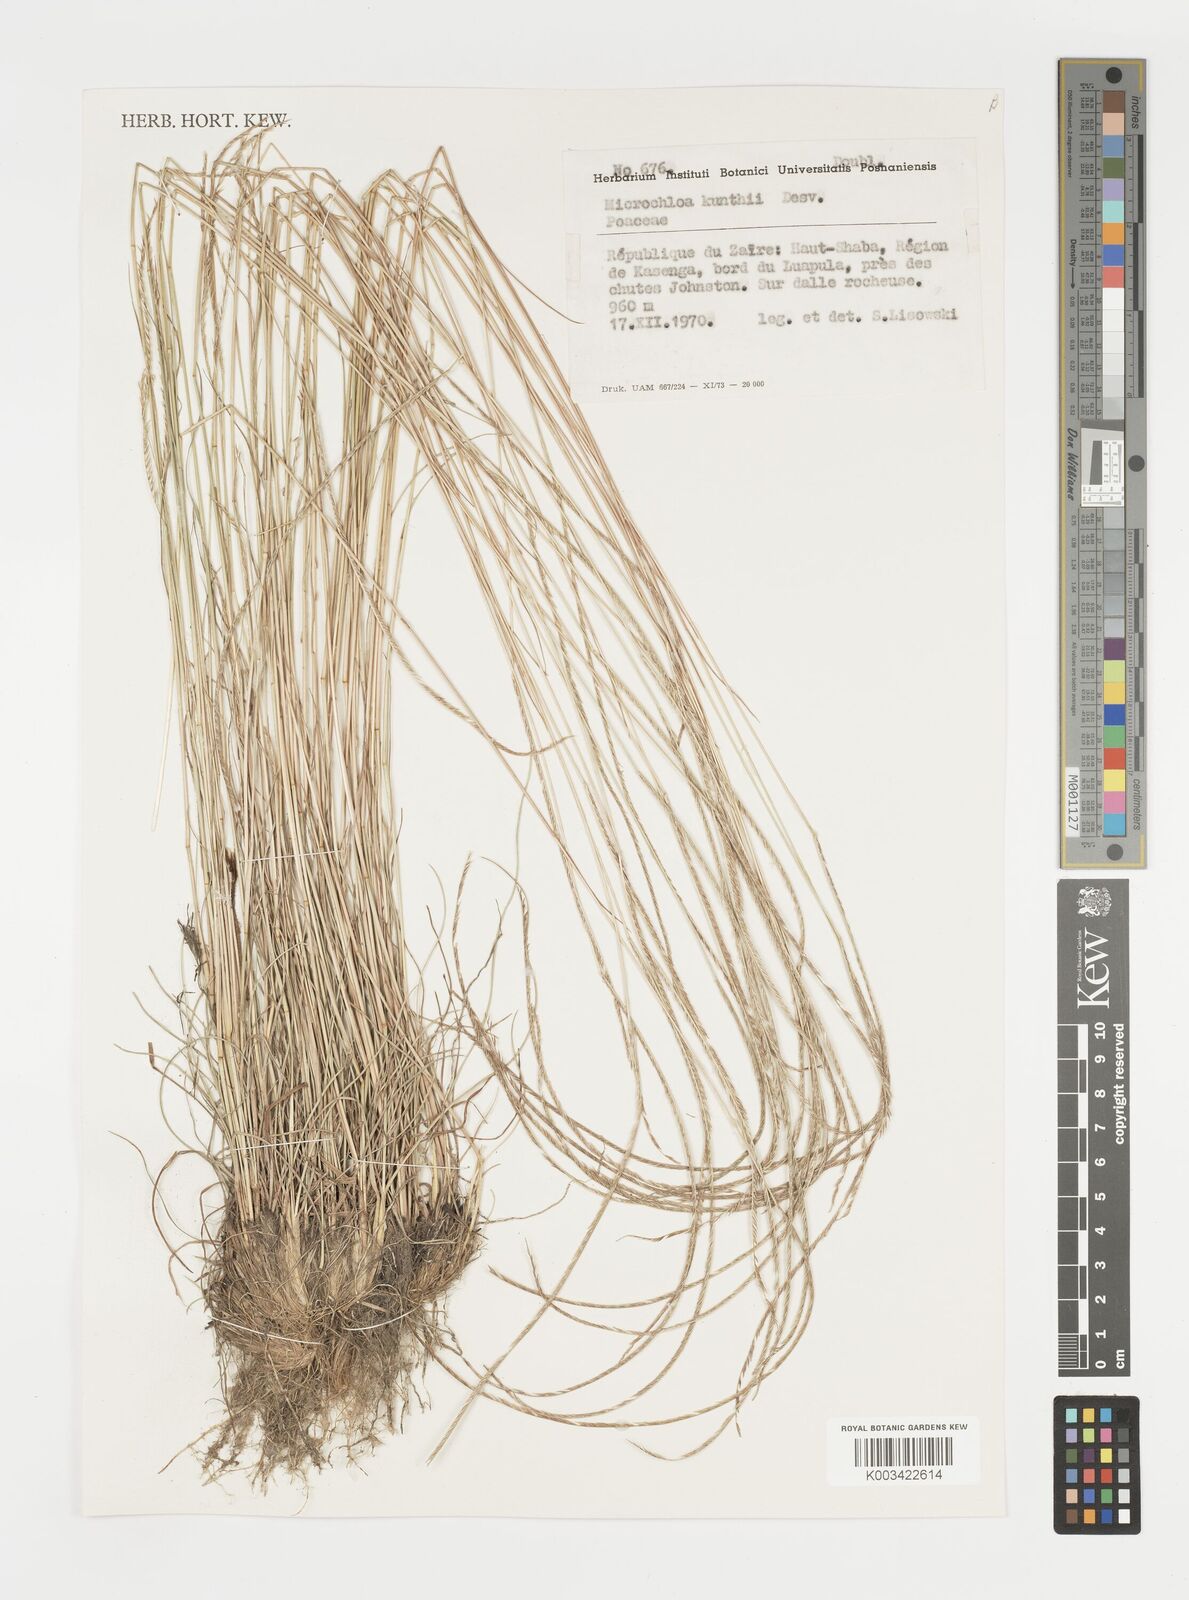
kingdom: Plantae
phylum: Tracheophyta
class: Liliopsida
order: Poales
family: Poaceae
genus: Microchloa
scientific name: Microchloa kunthii
